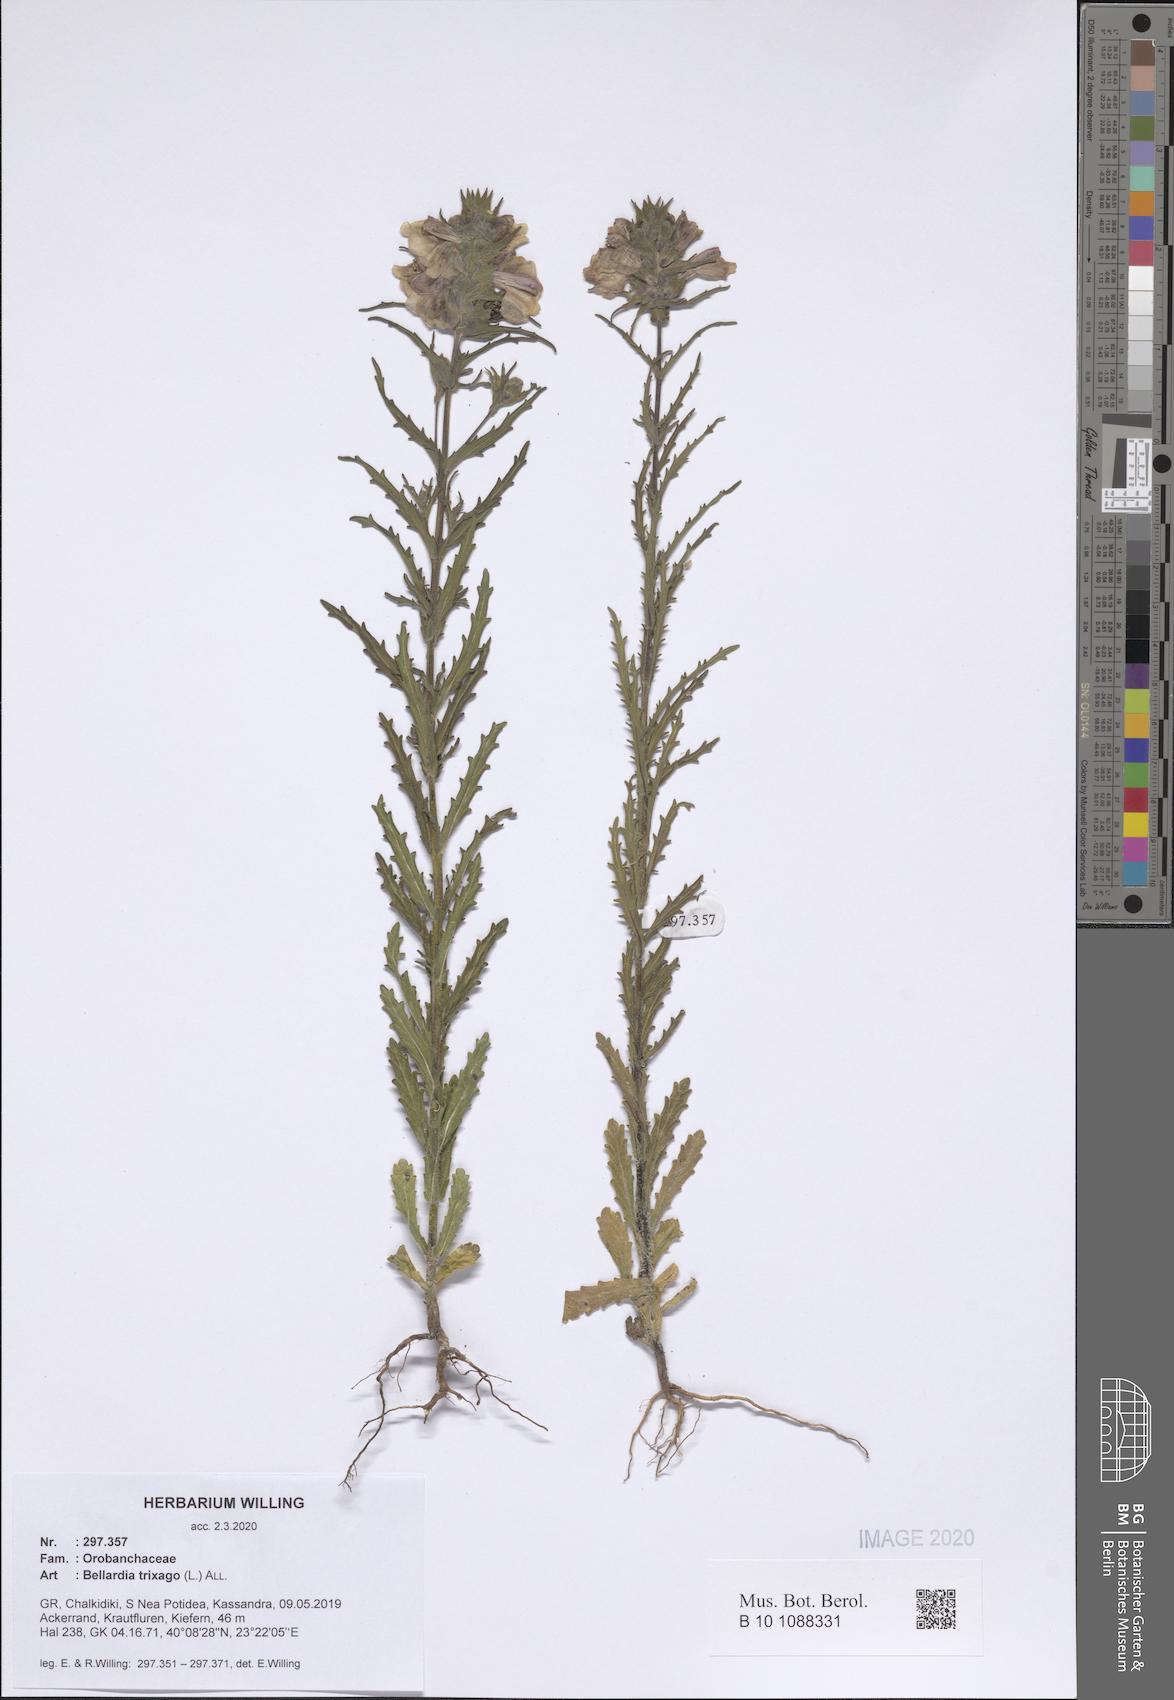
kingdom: Plantae
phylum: Tracheophyta
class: Magnoliopsida
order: Lamiales
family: Orobanchaceae
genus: Bellardia
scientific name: Bellardia trixago
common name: Mediterranean lineseed
